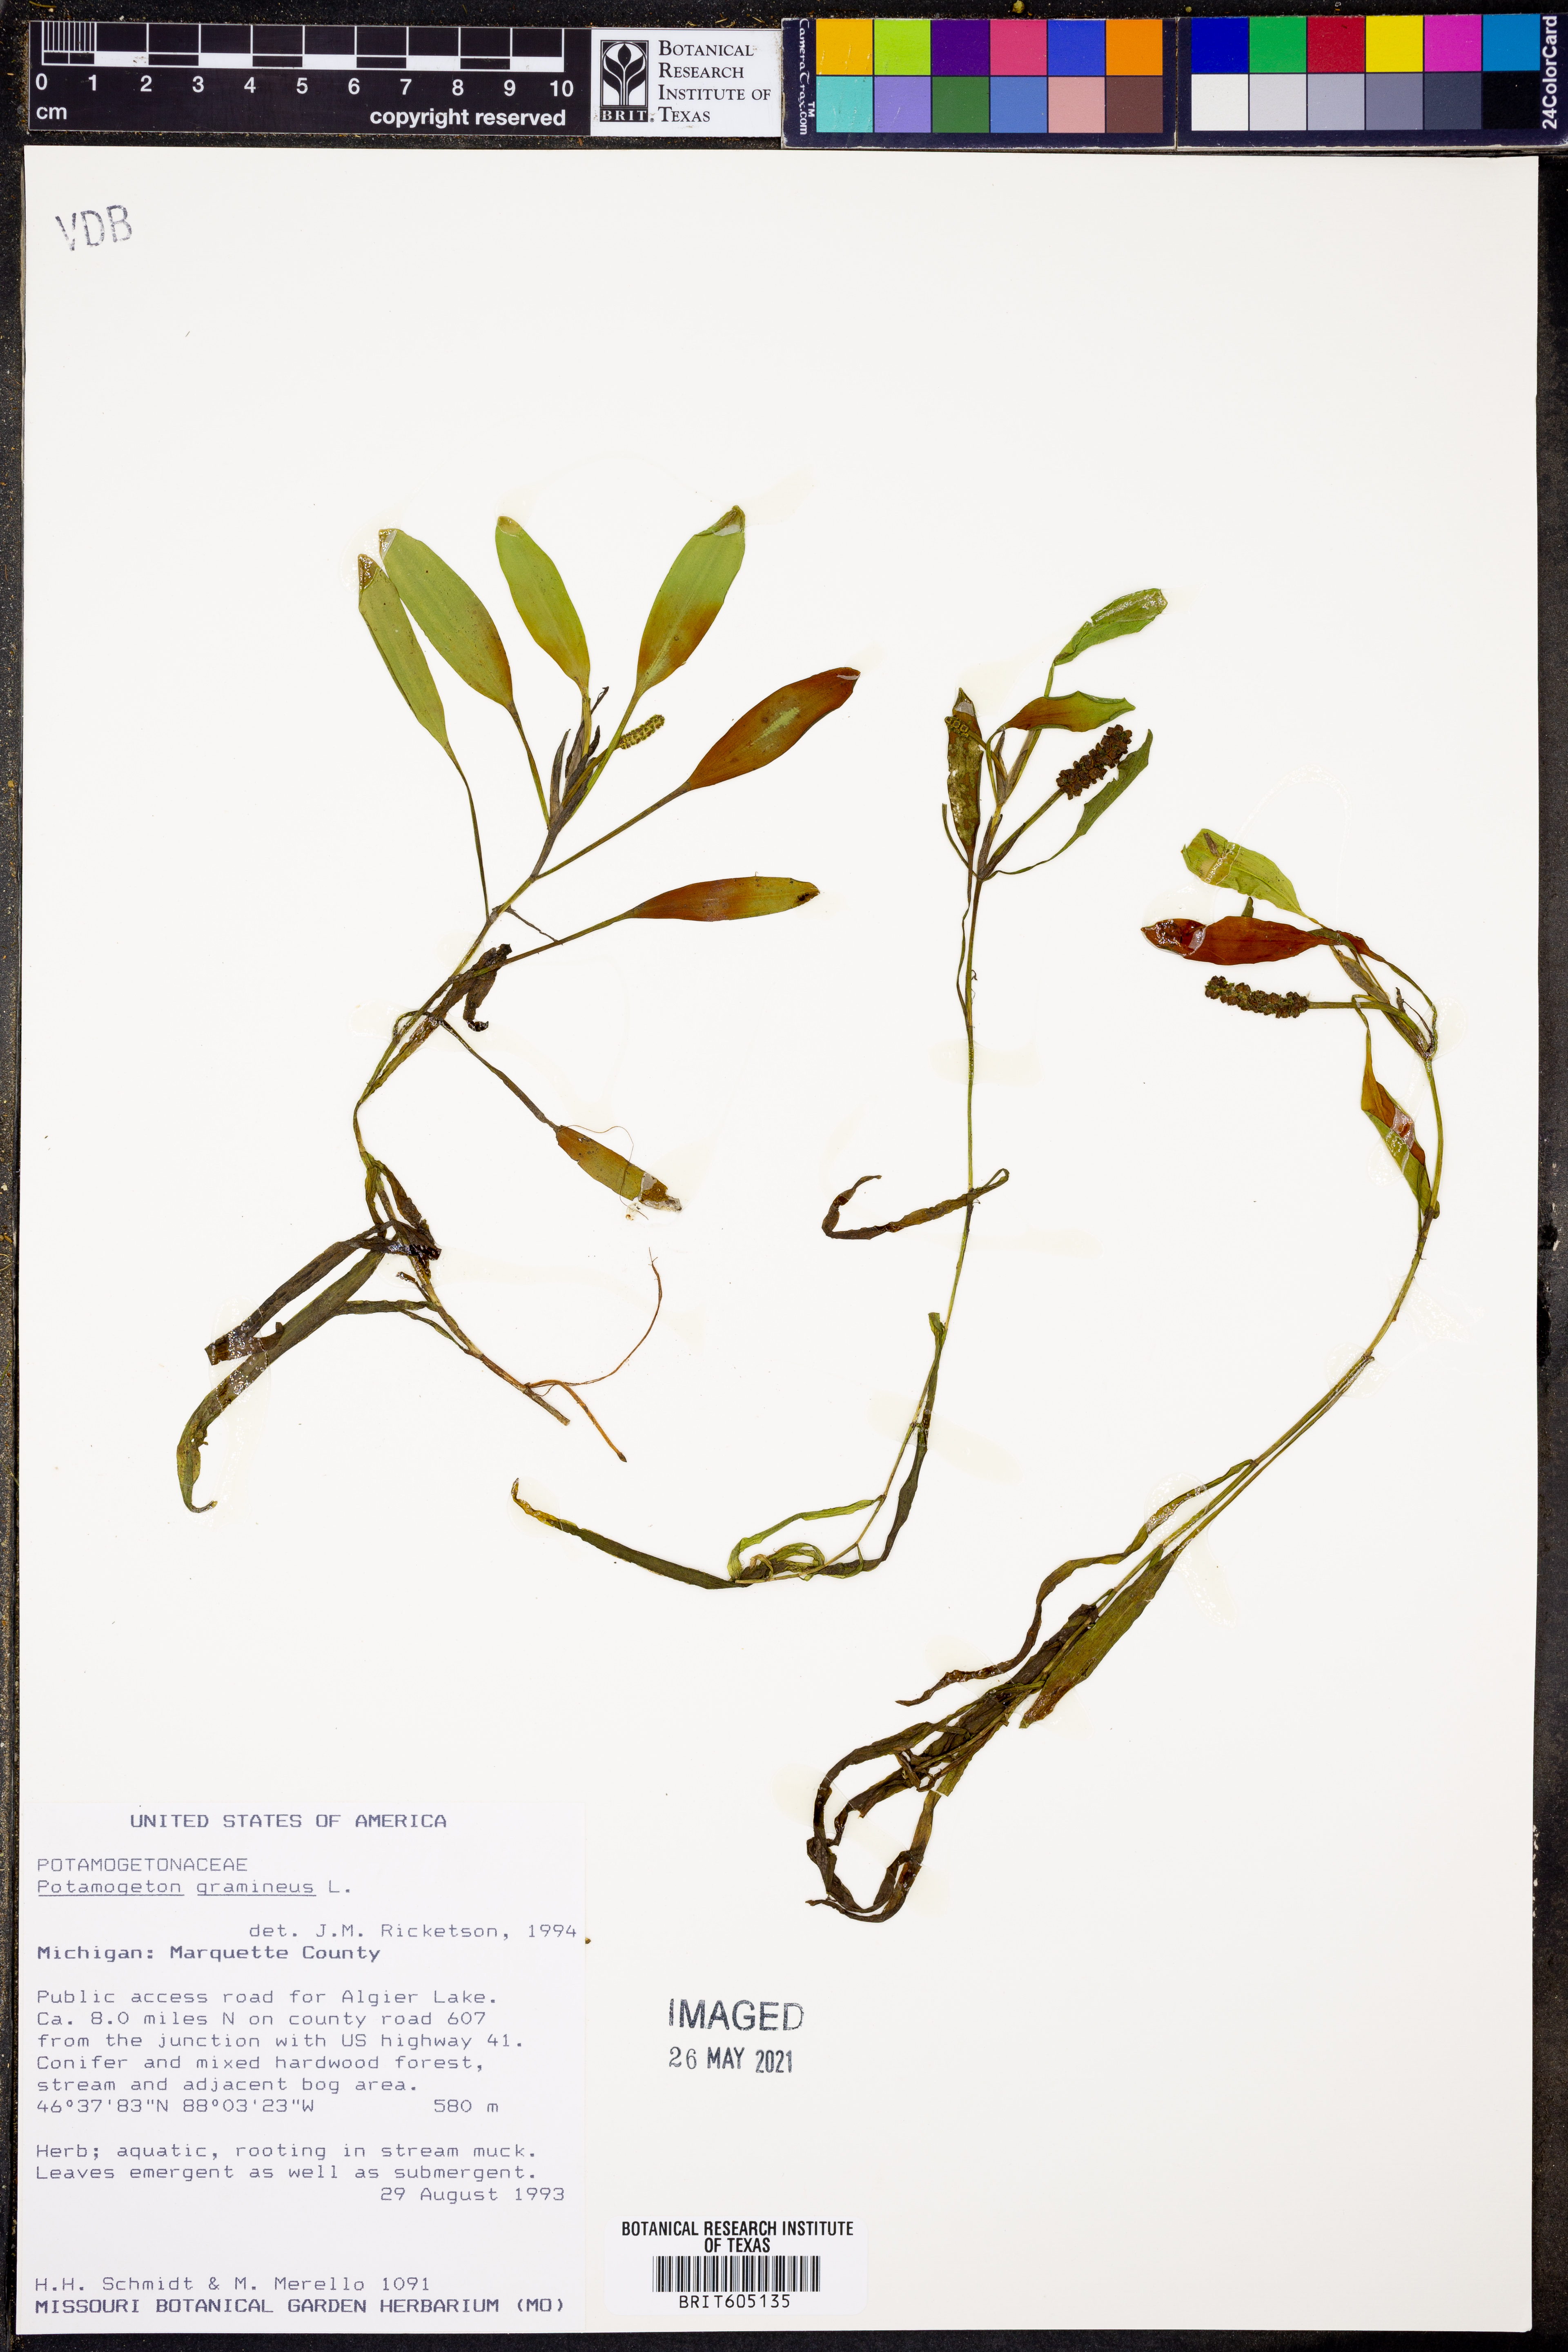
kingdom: Plantae
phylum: Tracheophyta
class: Liliopsida
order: Alismatales
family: Potamogetonaceae
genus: Potamogeton
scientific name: Potamogeton gramineus
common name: Various-leaved pondweed
